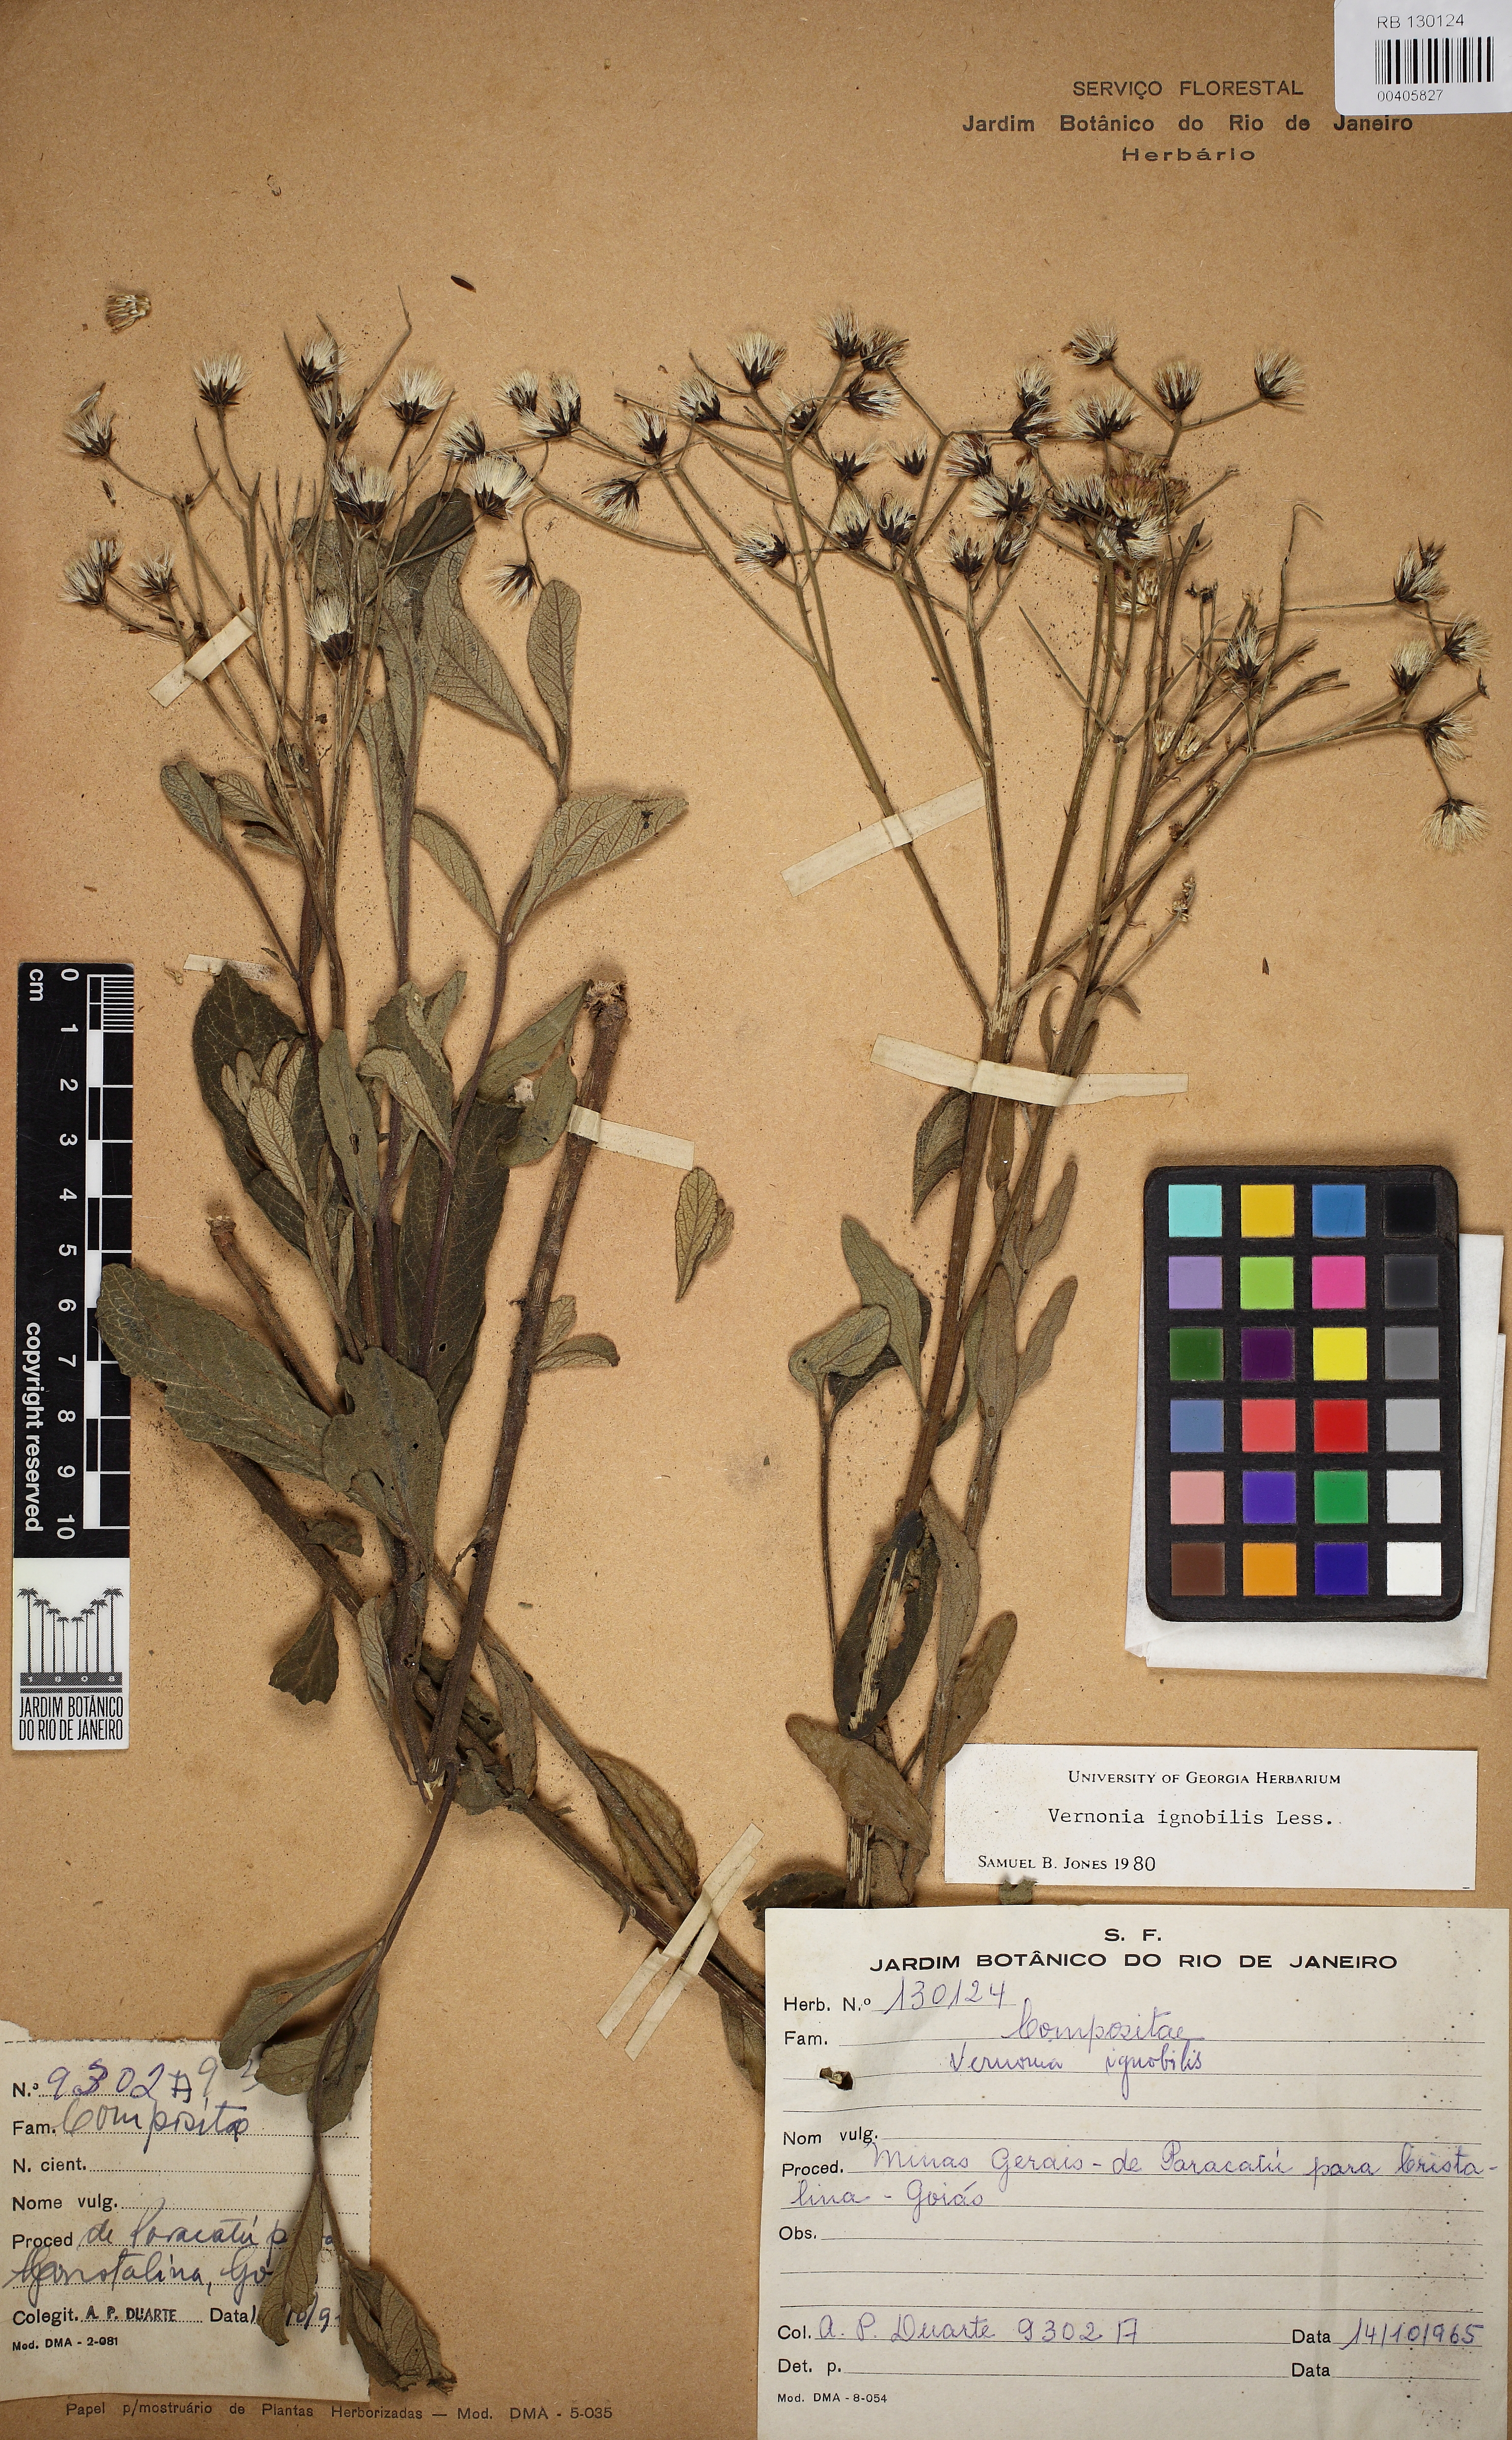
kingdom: Plantae
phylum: Tracheophyta
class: Magnoliopsida
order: Asterales
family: Asteraceae
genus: Vernonanthura
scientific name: Vernonanthura ignobilis
